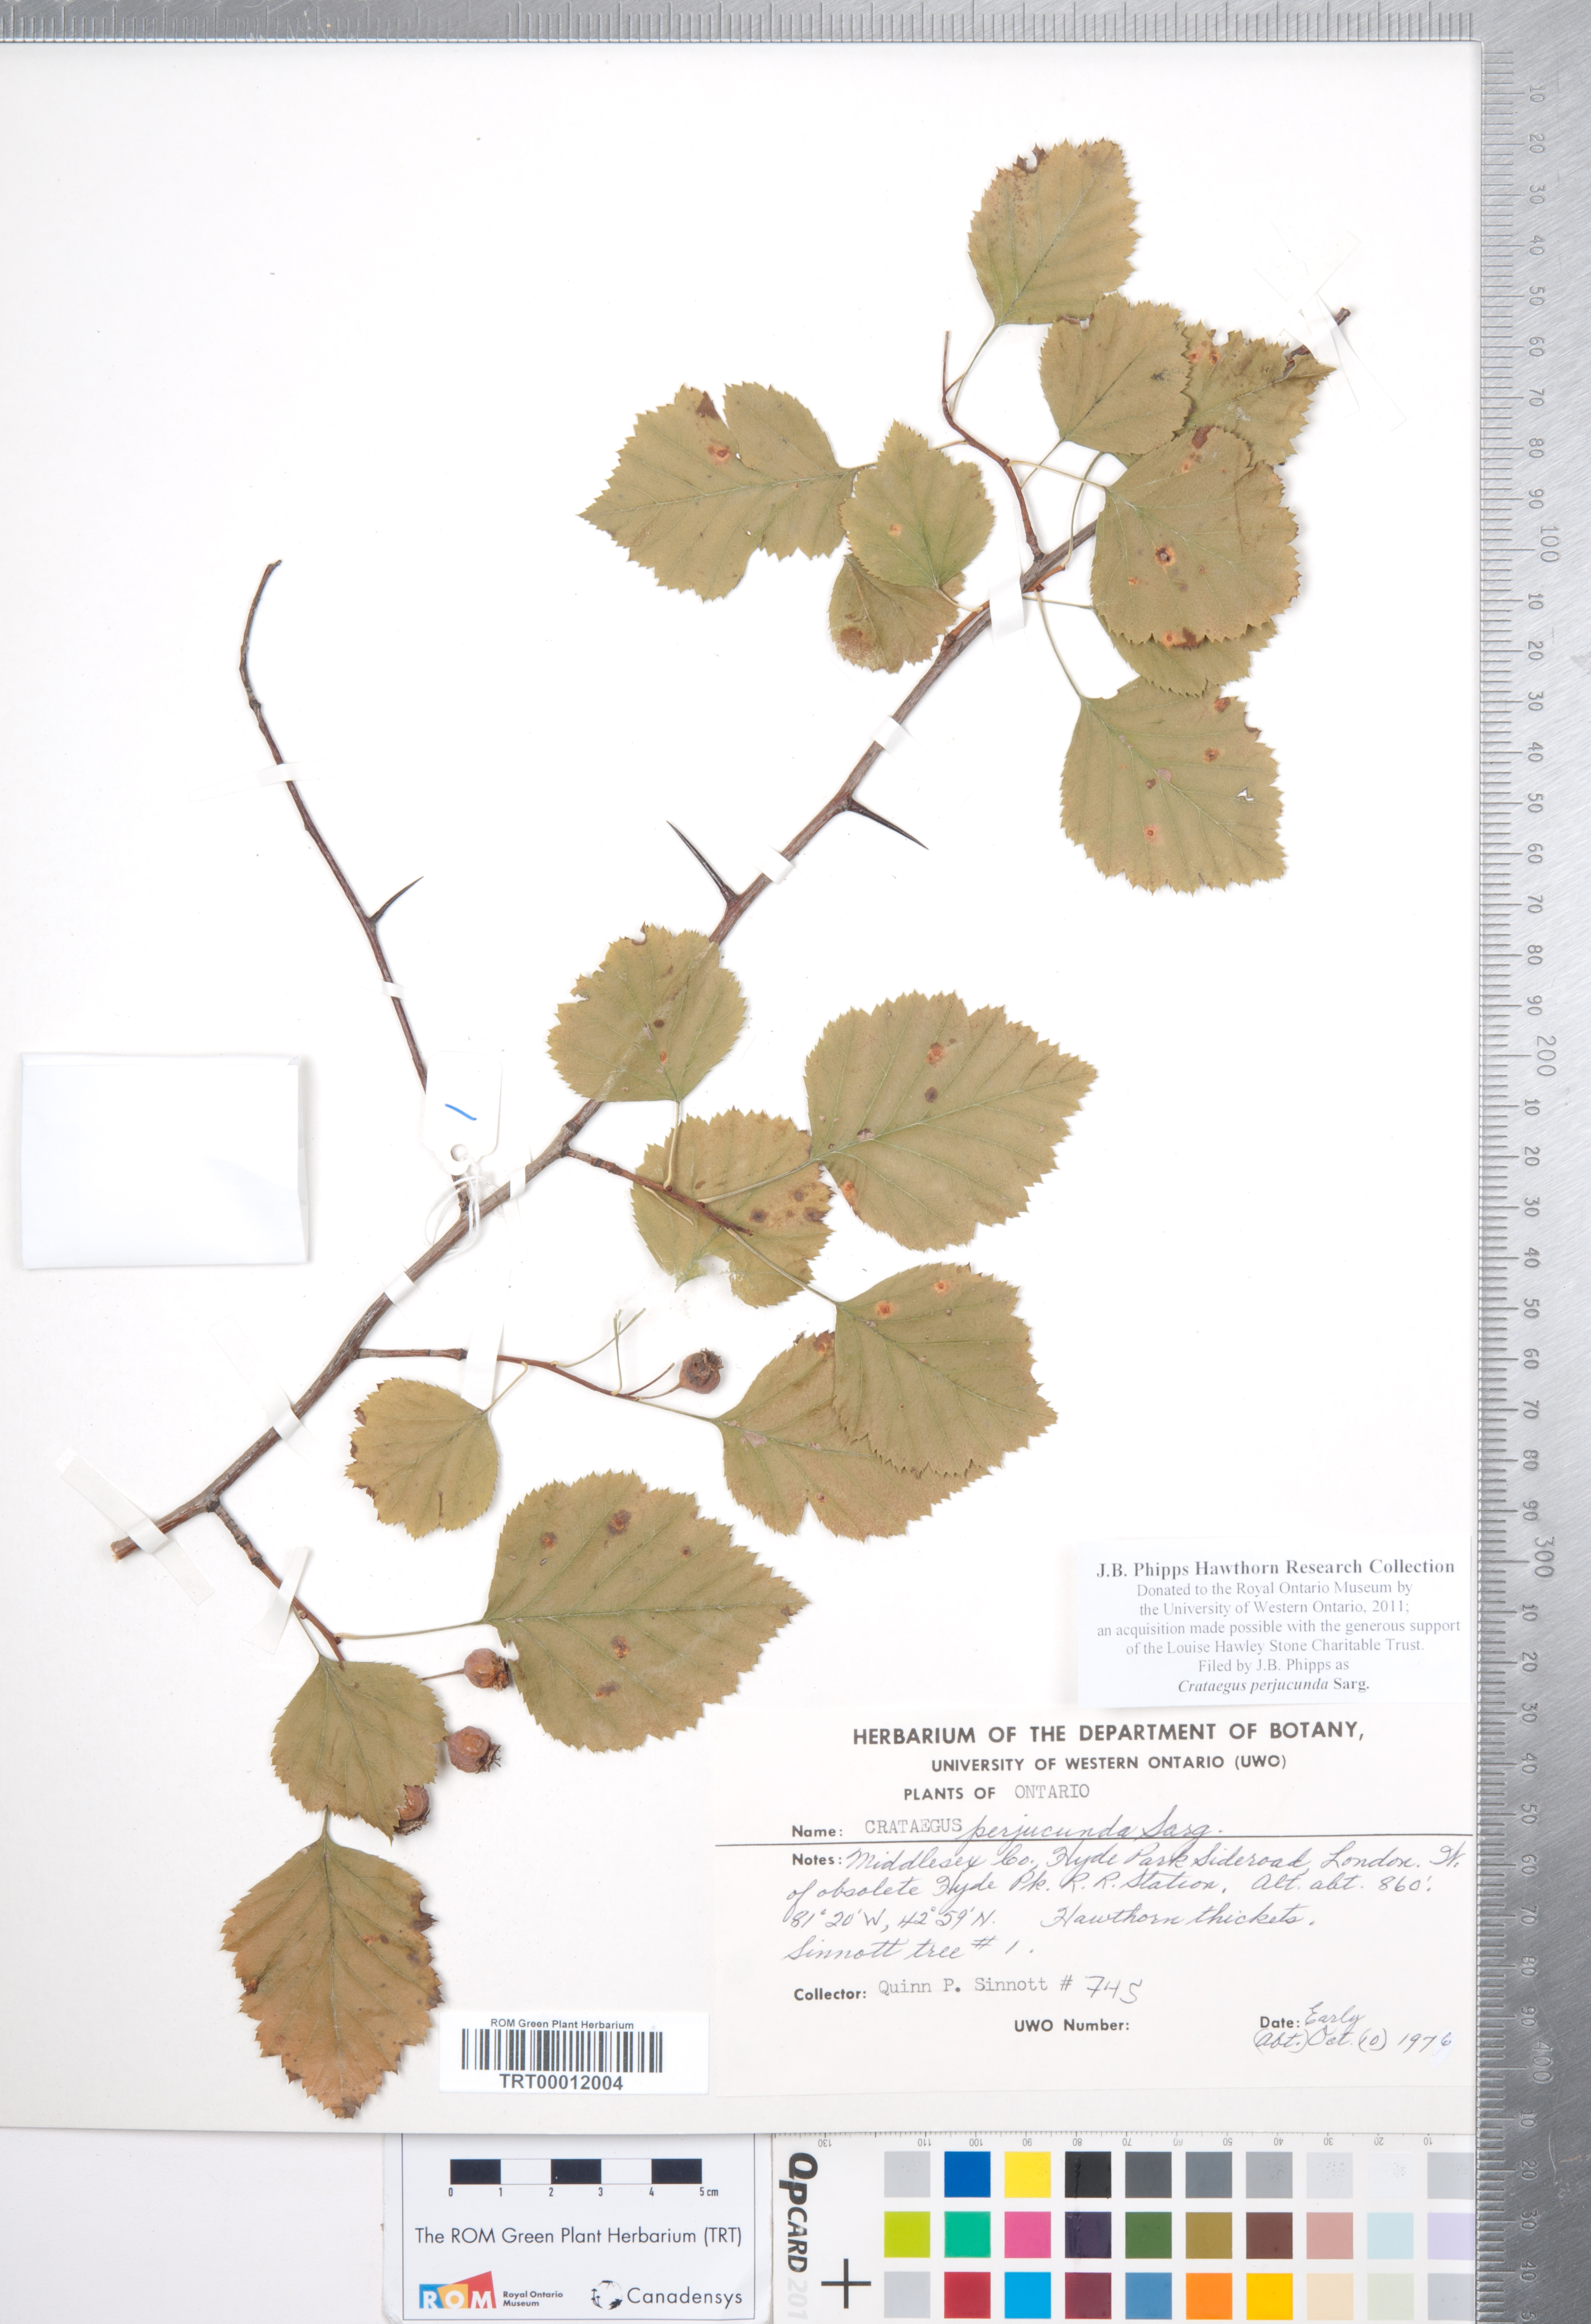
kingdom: Plantae
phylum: Tracheophyta
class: Magnoliopsida
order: Rosales
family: Rosaceae
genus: Crataegus
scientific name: Crataegus cognata
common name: Cognate hawthorn
